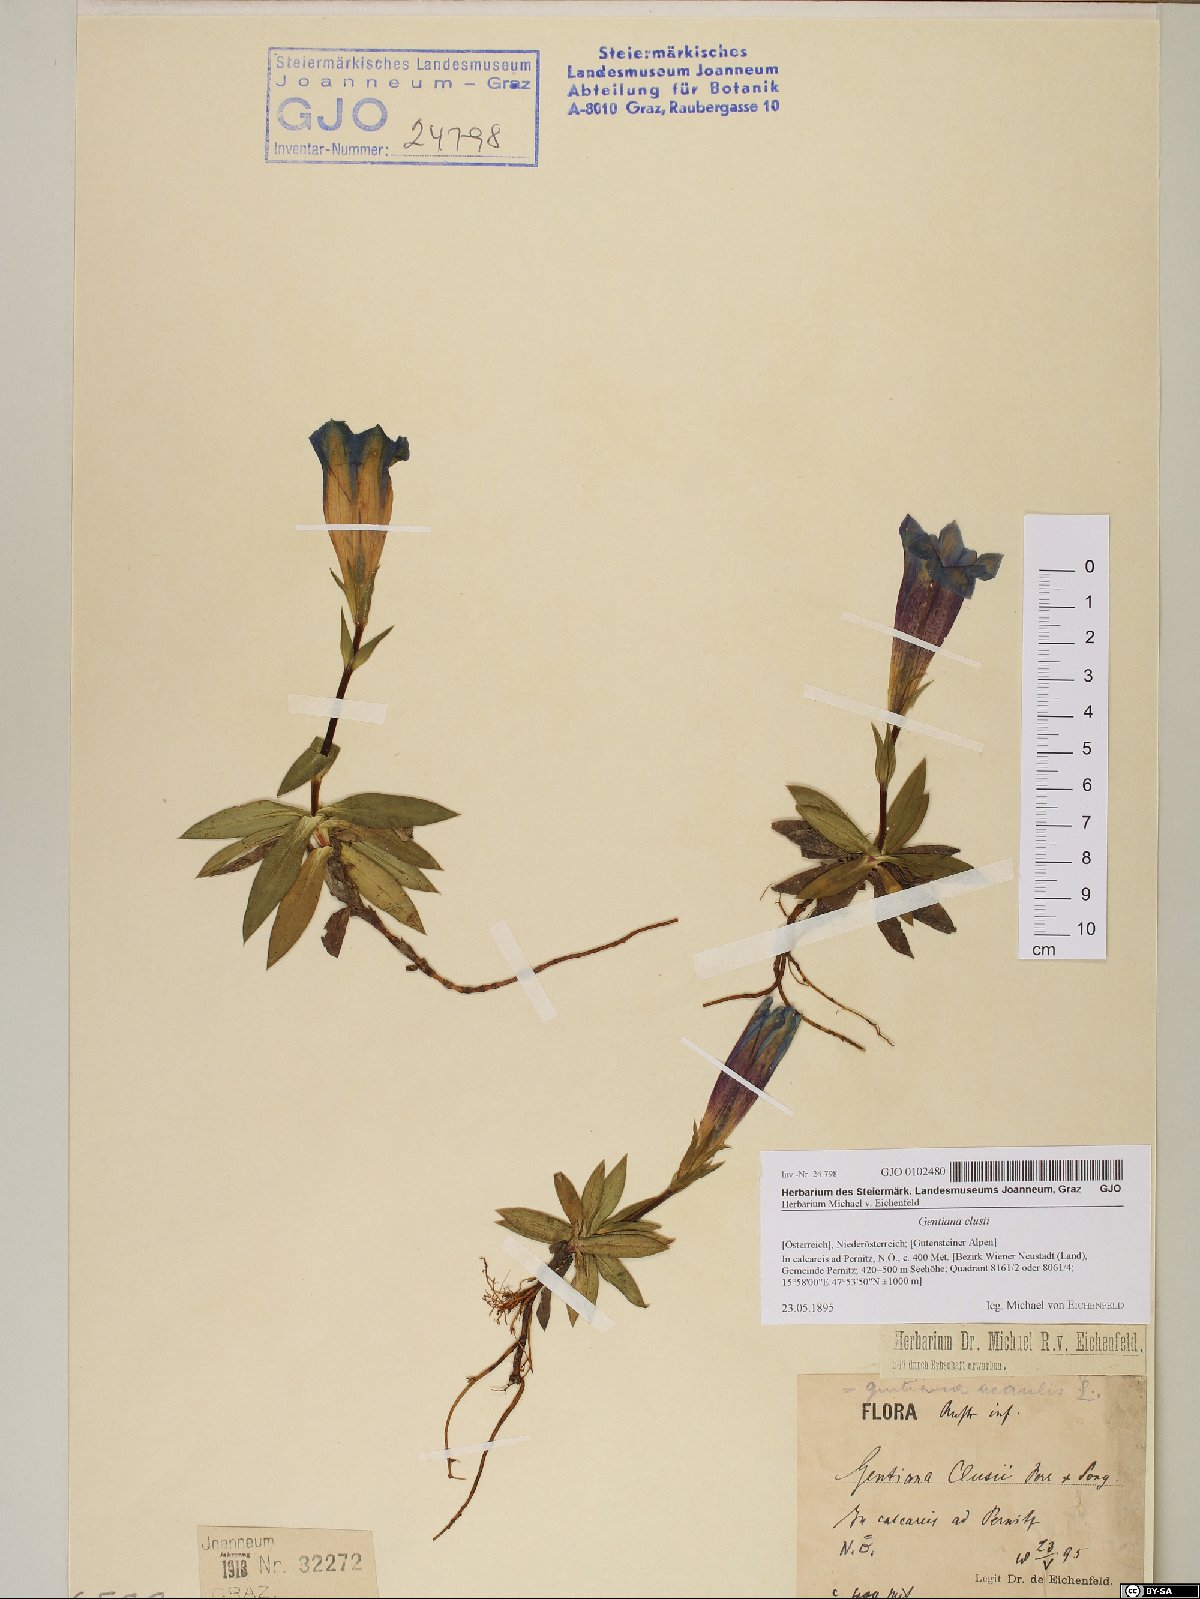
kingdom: Plantae
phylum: Tracheophyta
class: Magnoliopsida
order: Gentianales
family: Gentianaceae
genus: Gentiana
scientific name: Gentiana clusii
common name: Trumpet gentian
